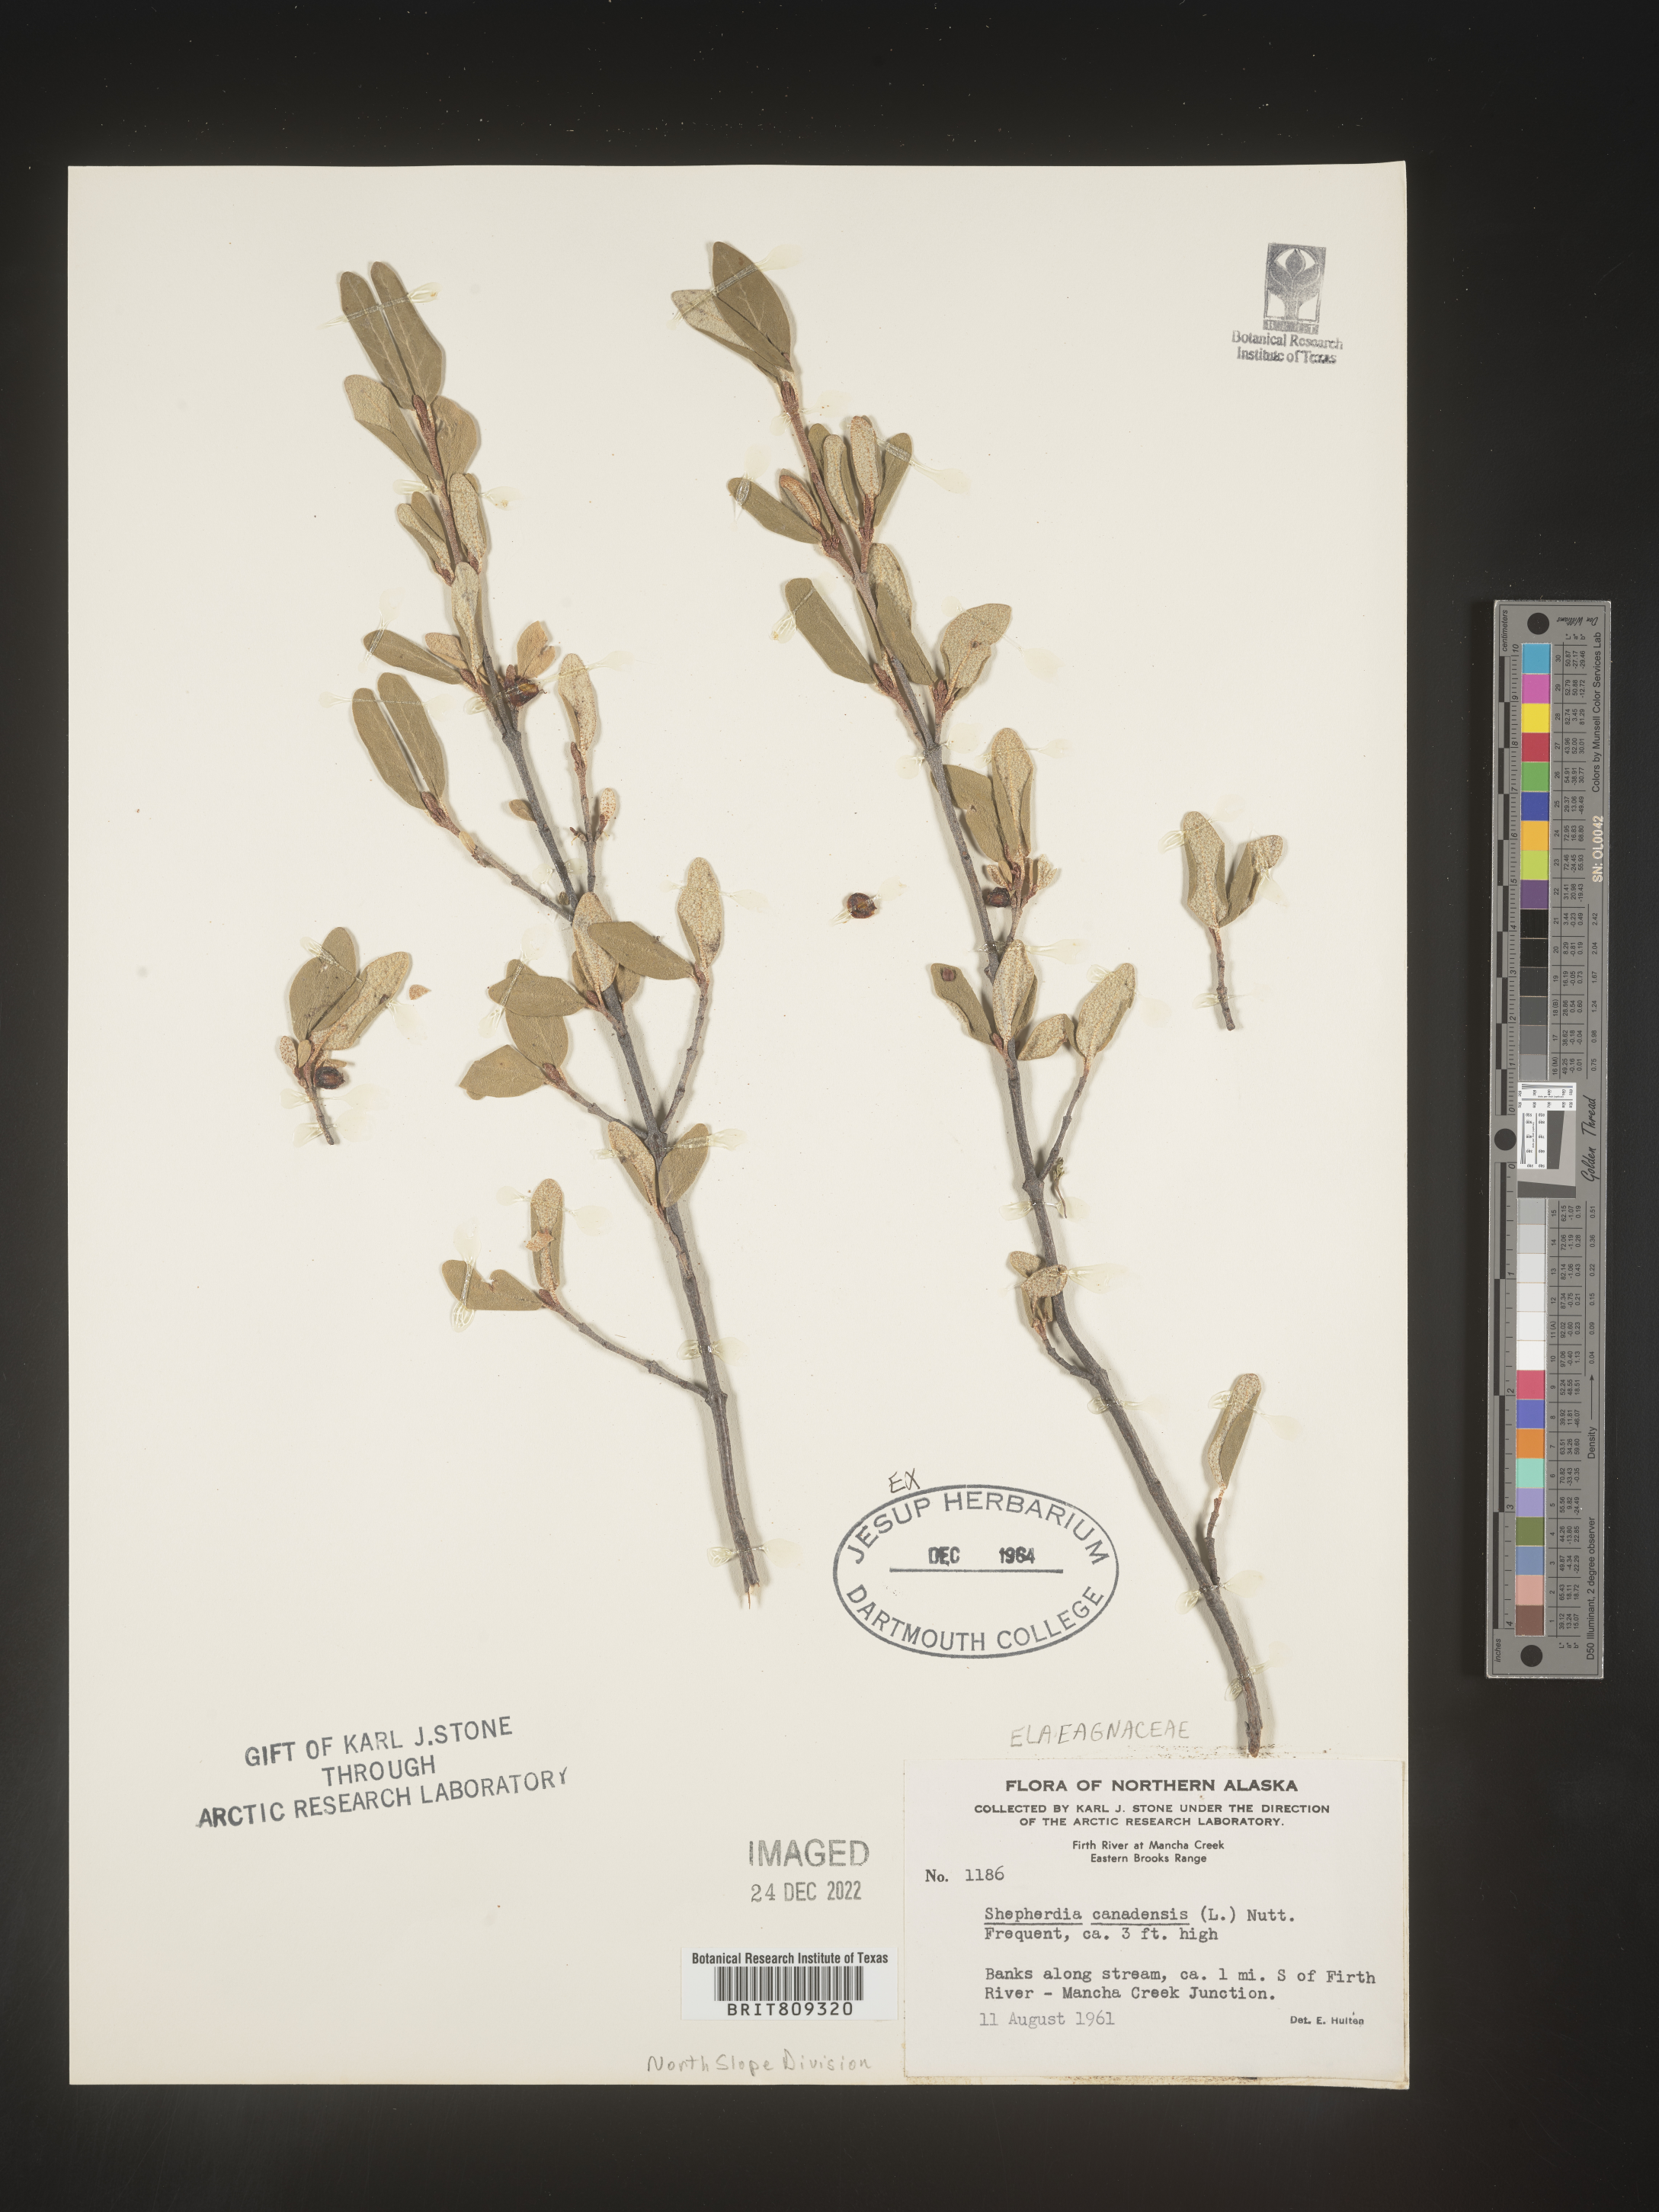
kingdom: Plantae
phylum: Tracheophyta
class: Magnoliopsida
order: Rosales
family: Elaeagnaceae
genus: Shepherdia
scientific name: Shepherdia canadensis
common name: Soapberry
